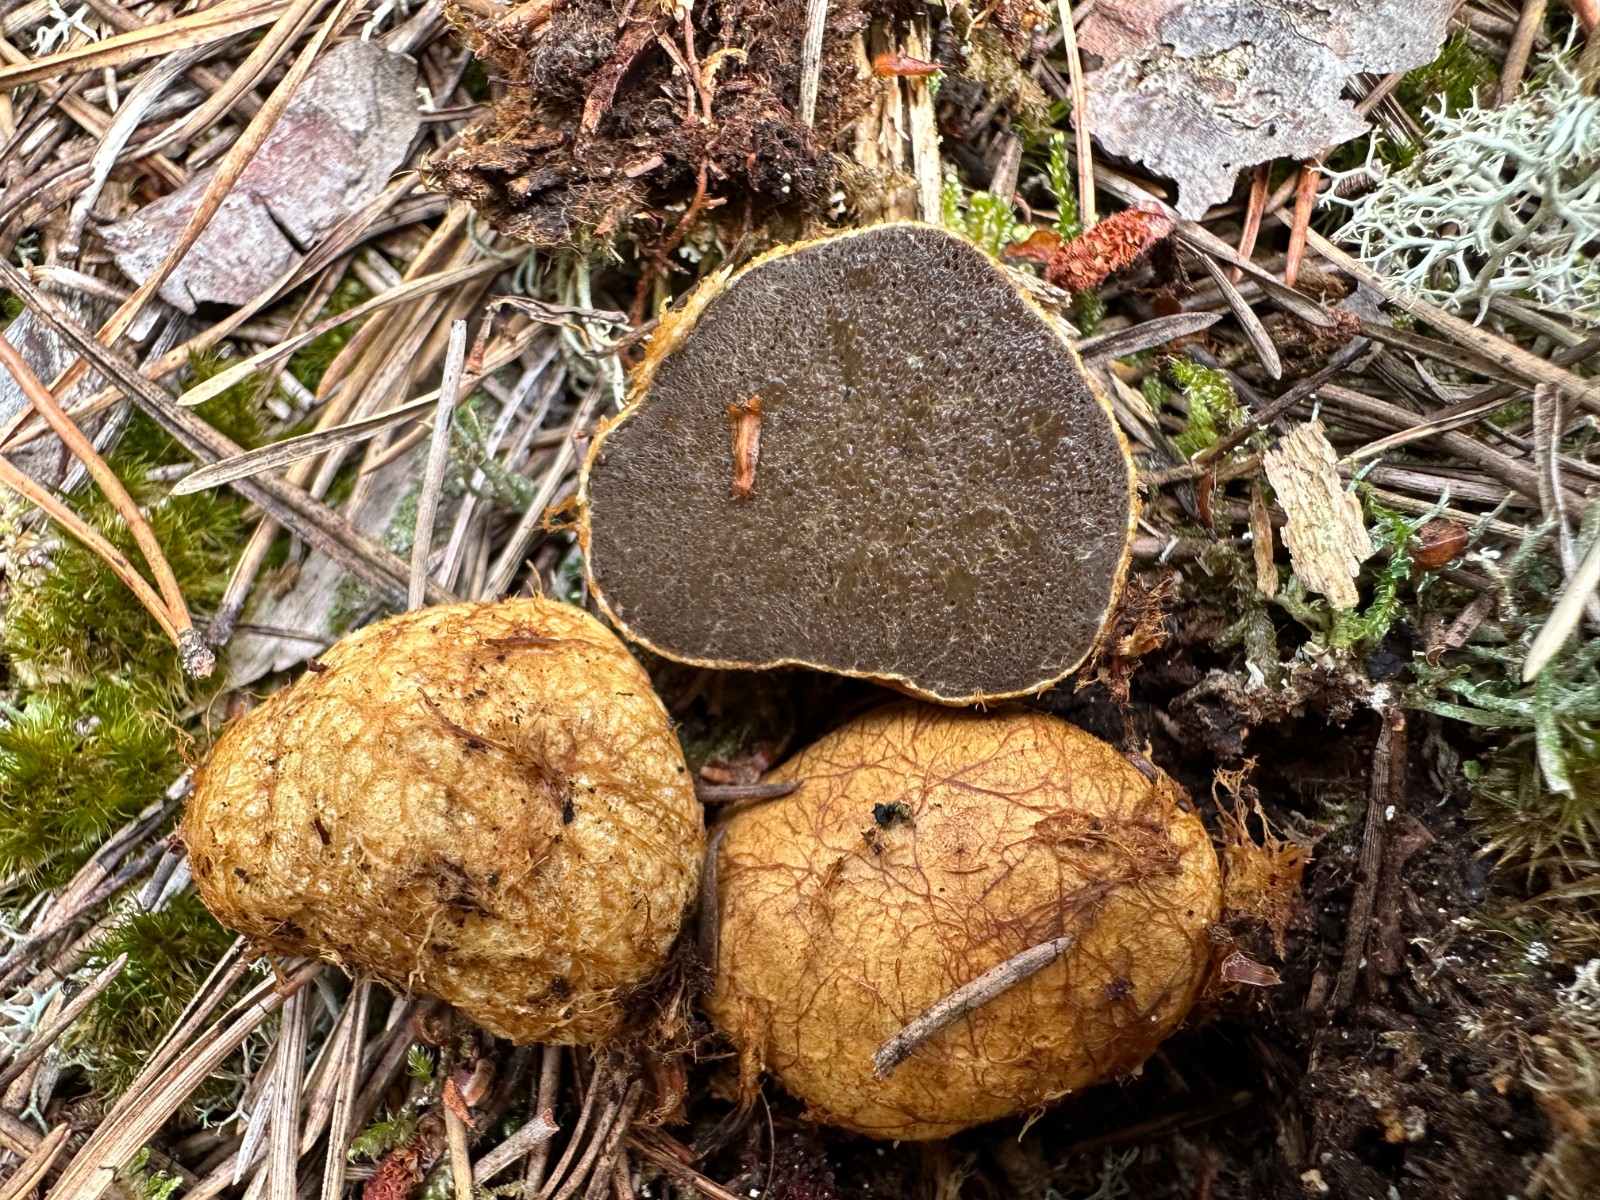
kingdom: Fungi
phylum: Basidiomycota
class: Agaricomycetes
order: Boletales
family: Rhizopogonaceae
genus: Rhizopogon
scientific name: Rhizopogon obtextus
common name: gul skægtrøffel
